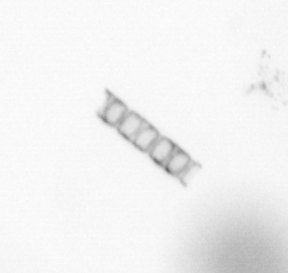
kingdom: Chromista
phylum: Ochrophyta
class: Bacillariophyceae
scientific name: Bacillariophyceae
